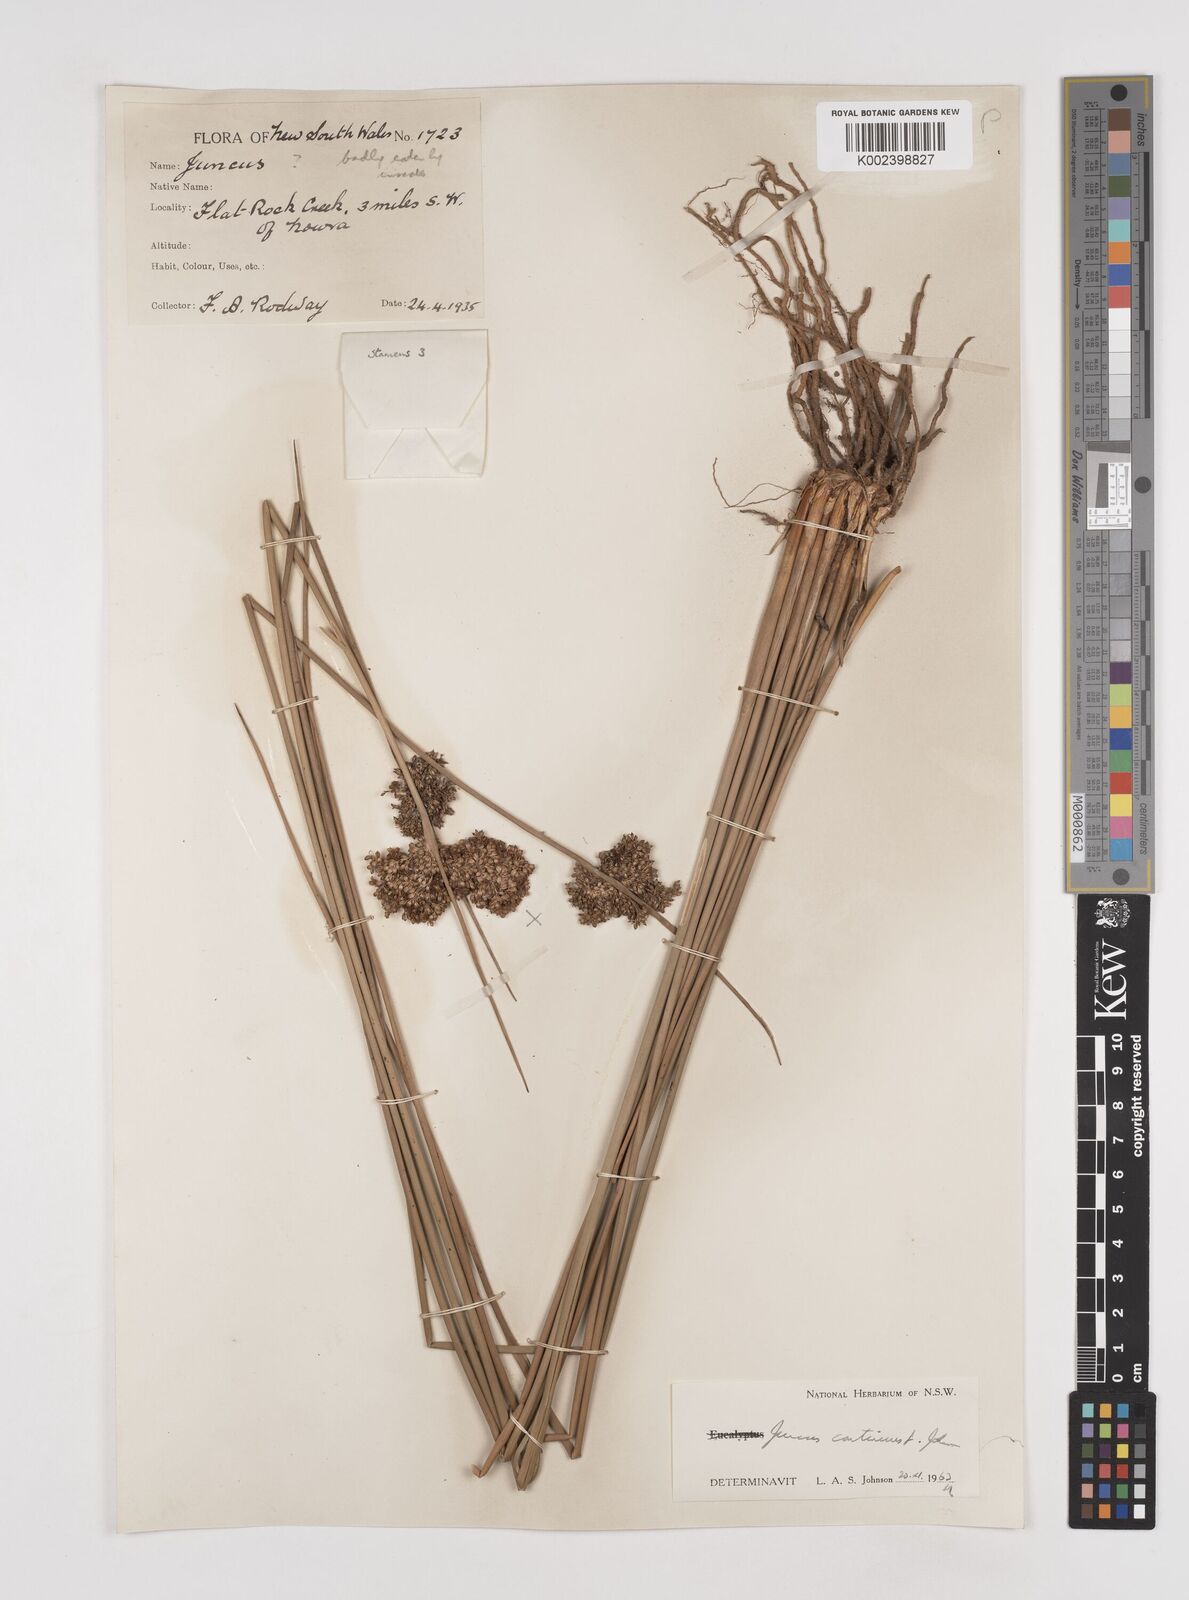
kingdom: Plantae
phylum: Tracheophyta
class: Liliopsida
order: Poales
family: Juncaceae
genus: Juncus
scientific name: Juncus continuus
